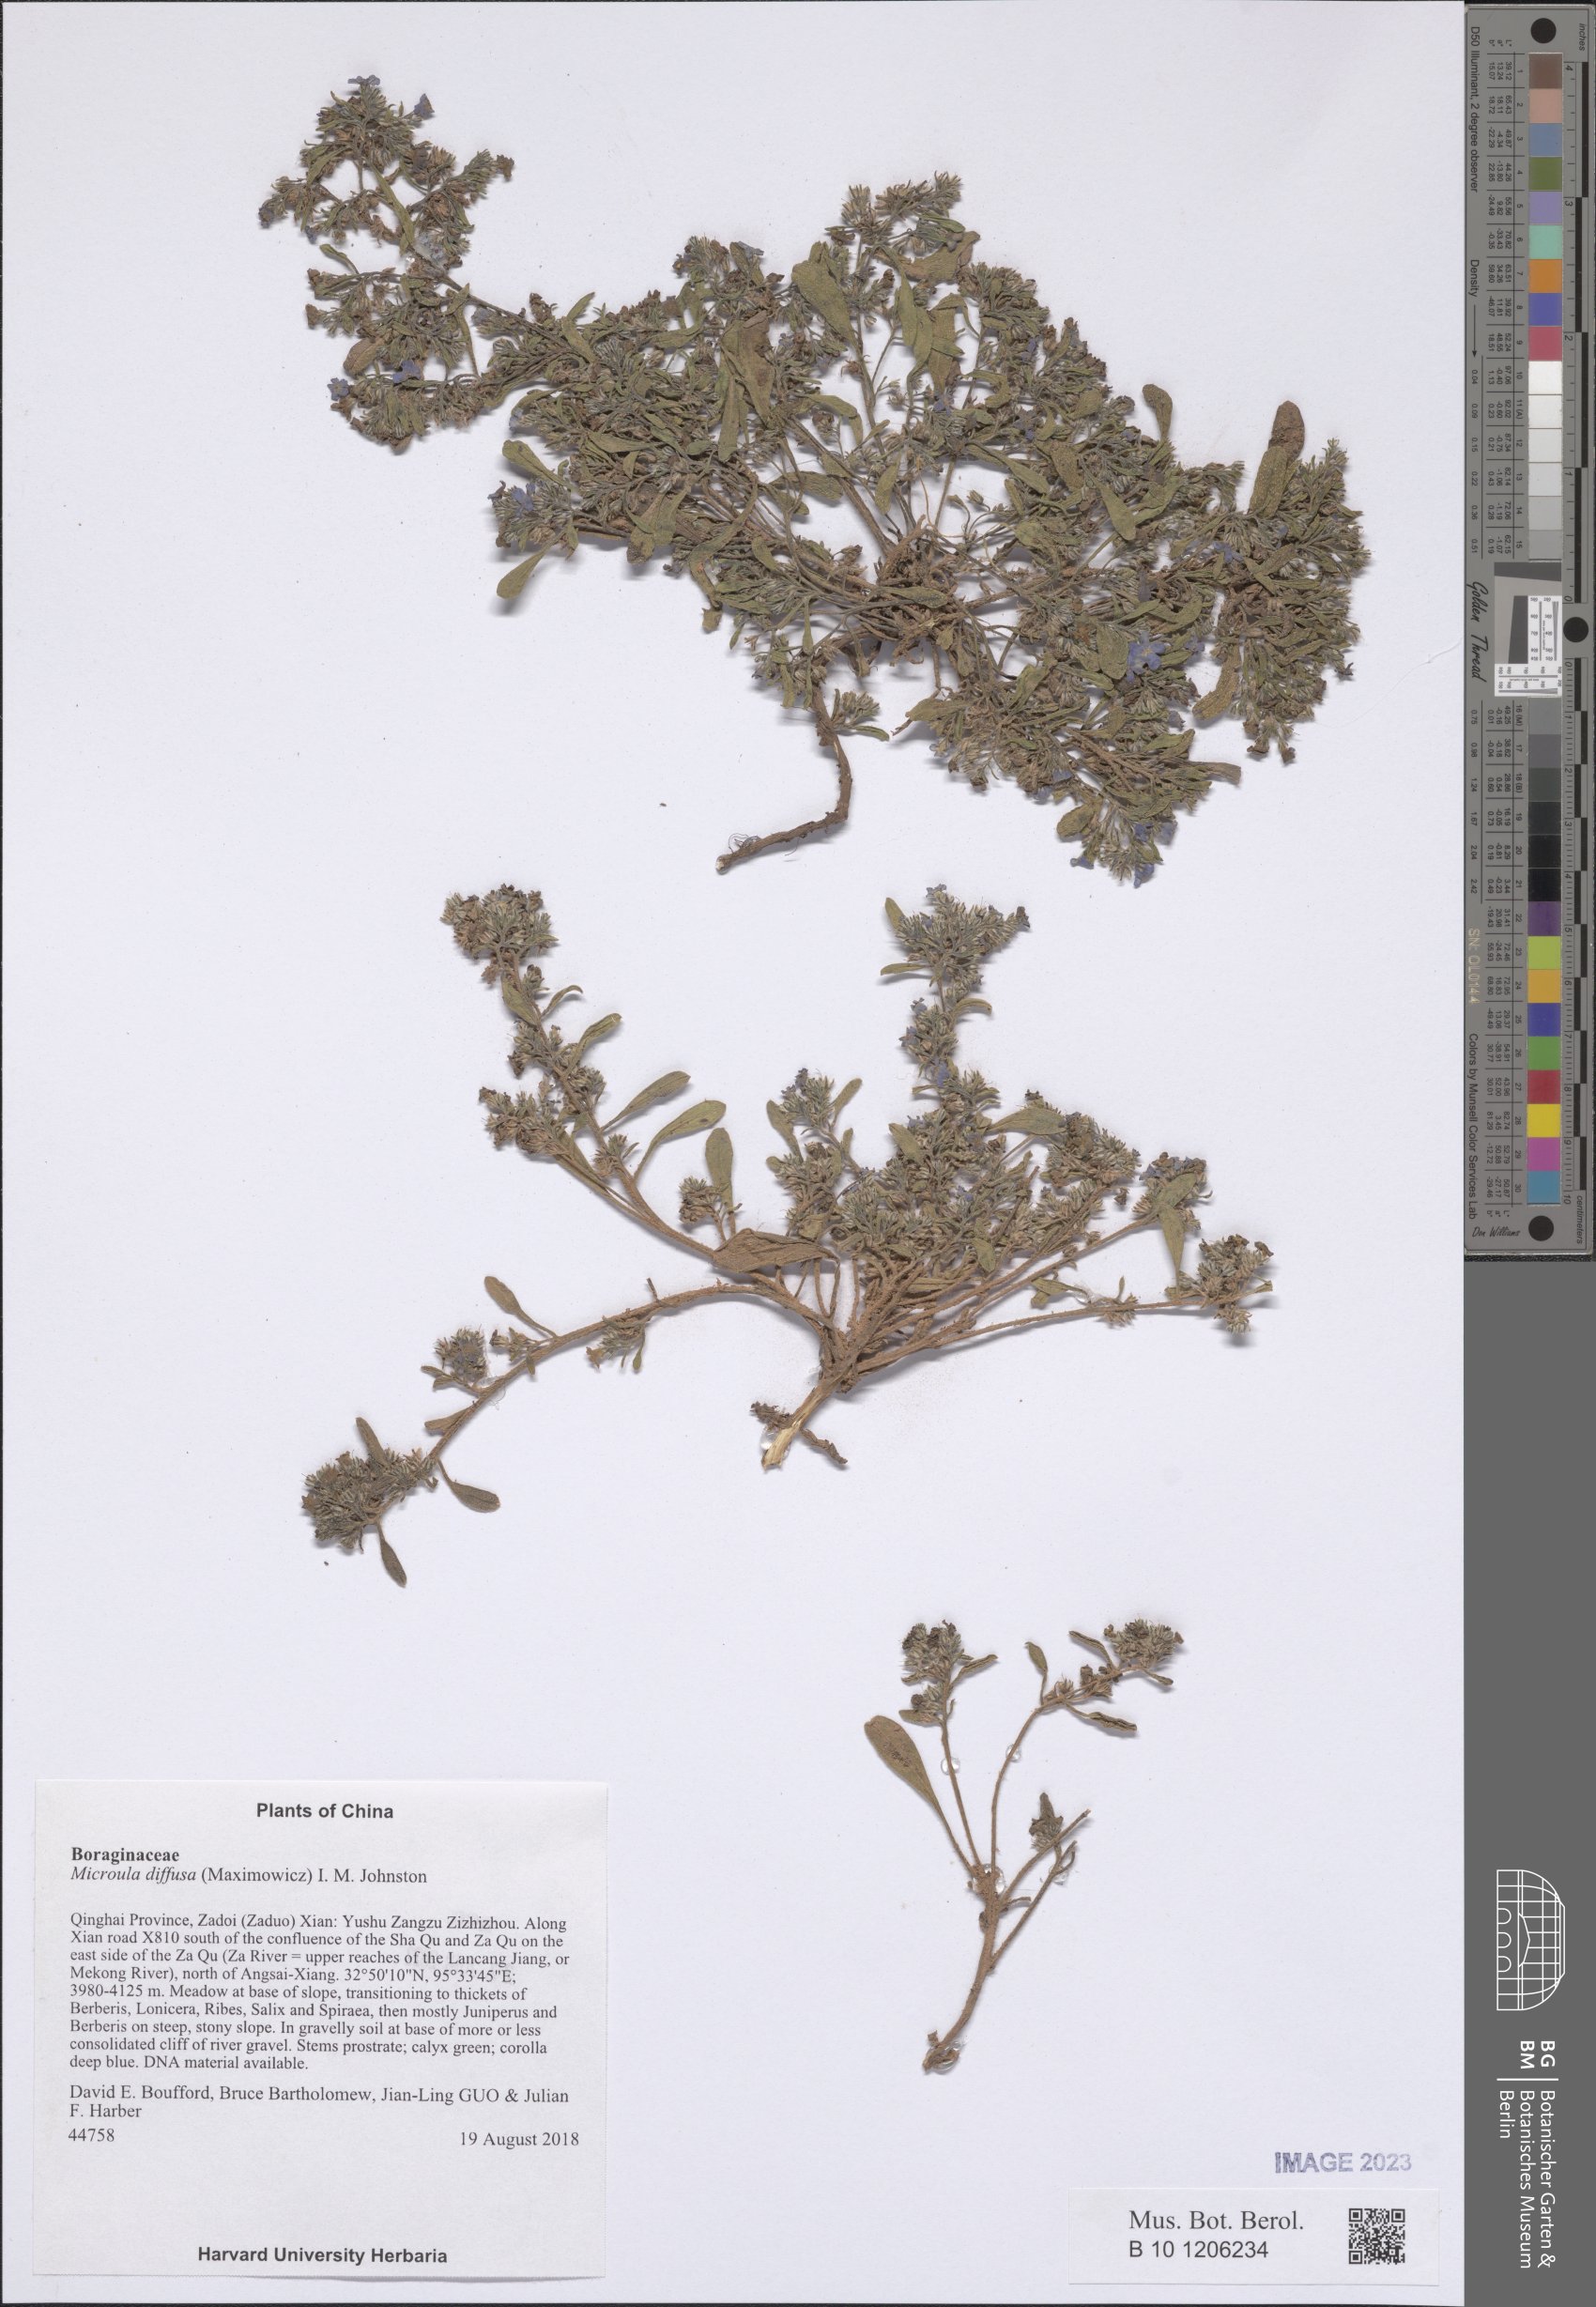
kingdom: Plantae
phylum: Tracheophyta
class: Magnoliopsida
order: Boraginales
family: Boraginaceae
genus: Microula
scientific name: Microula diffusa
